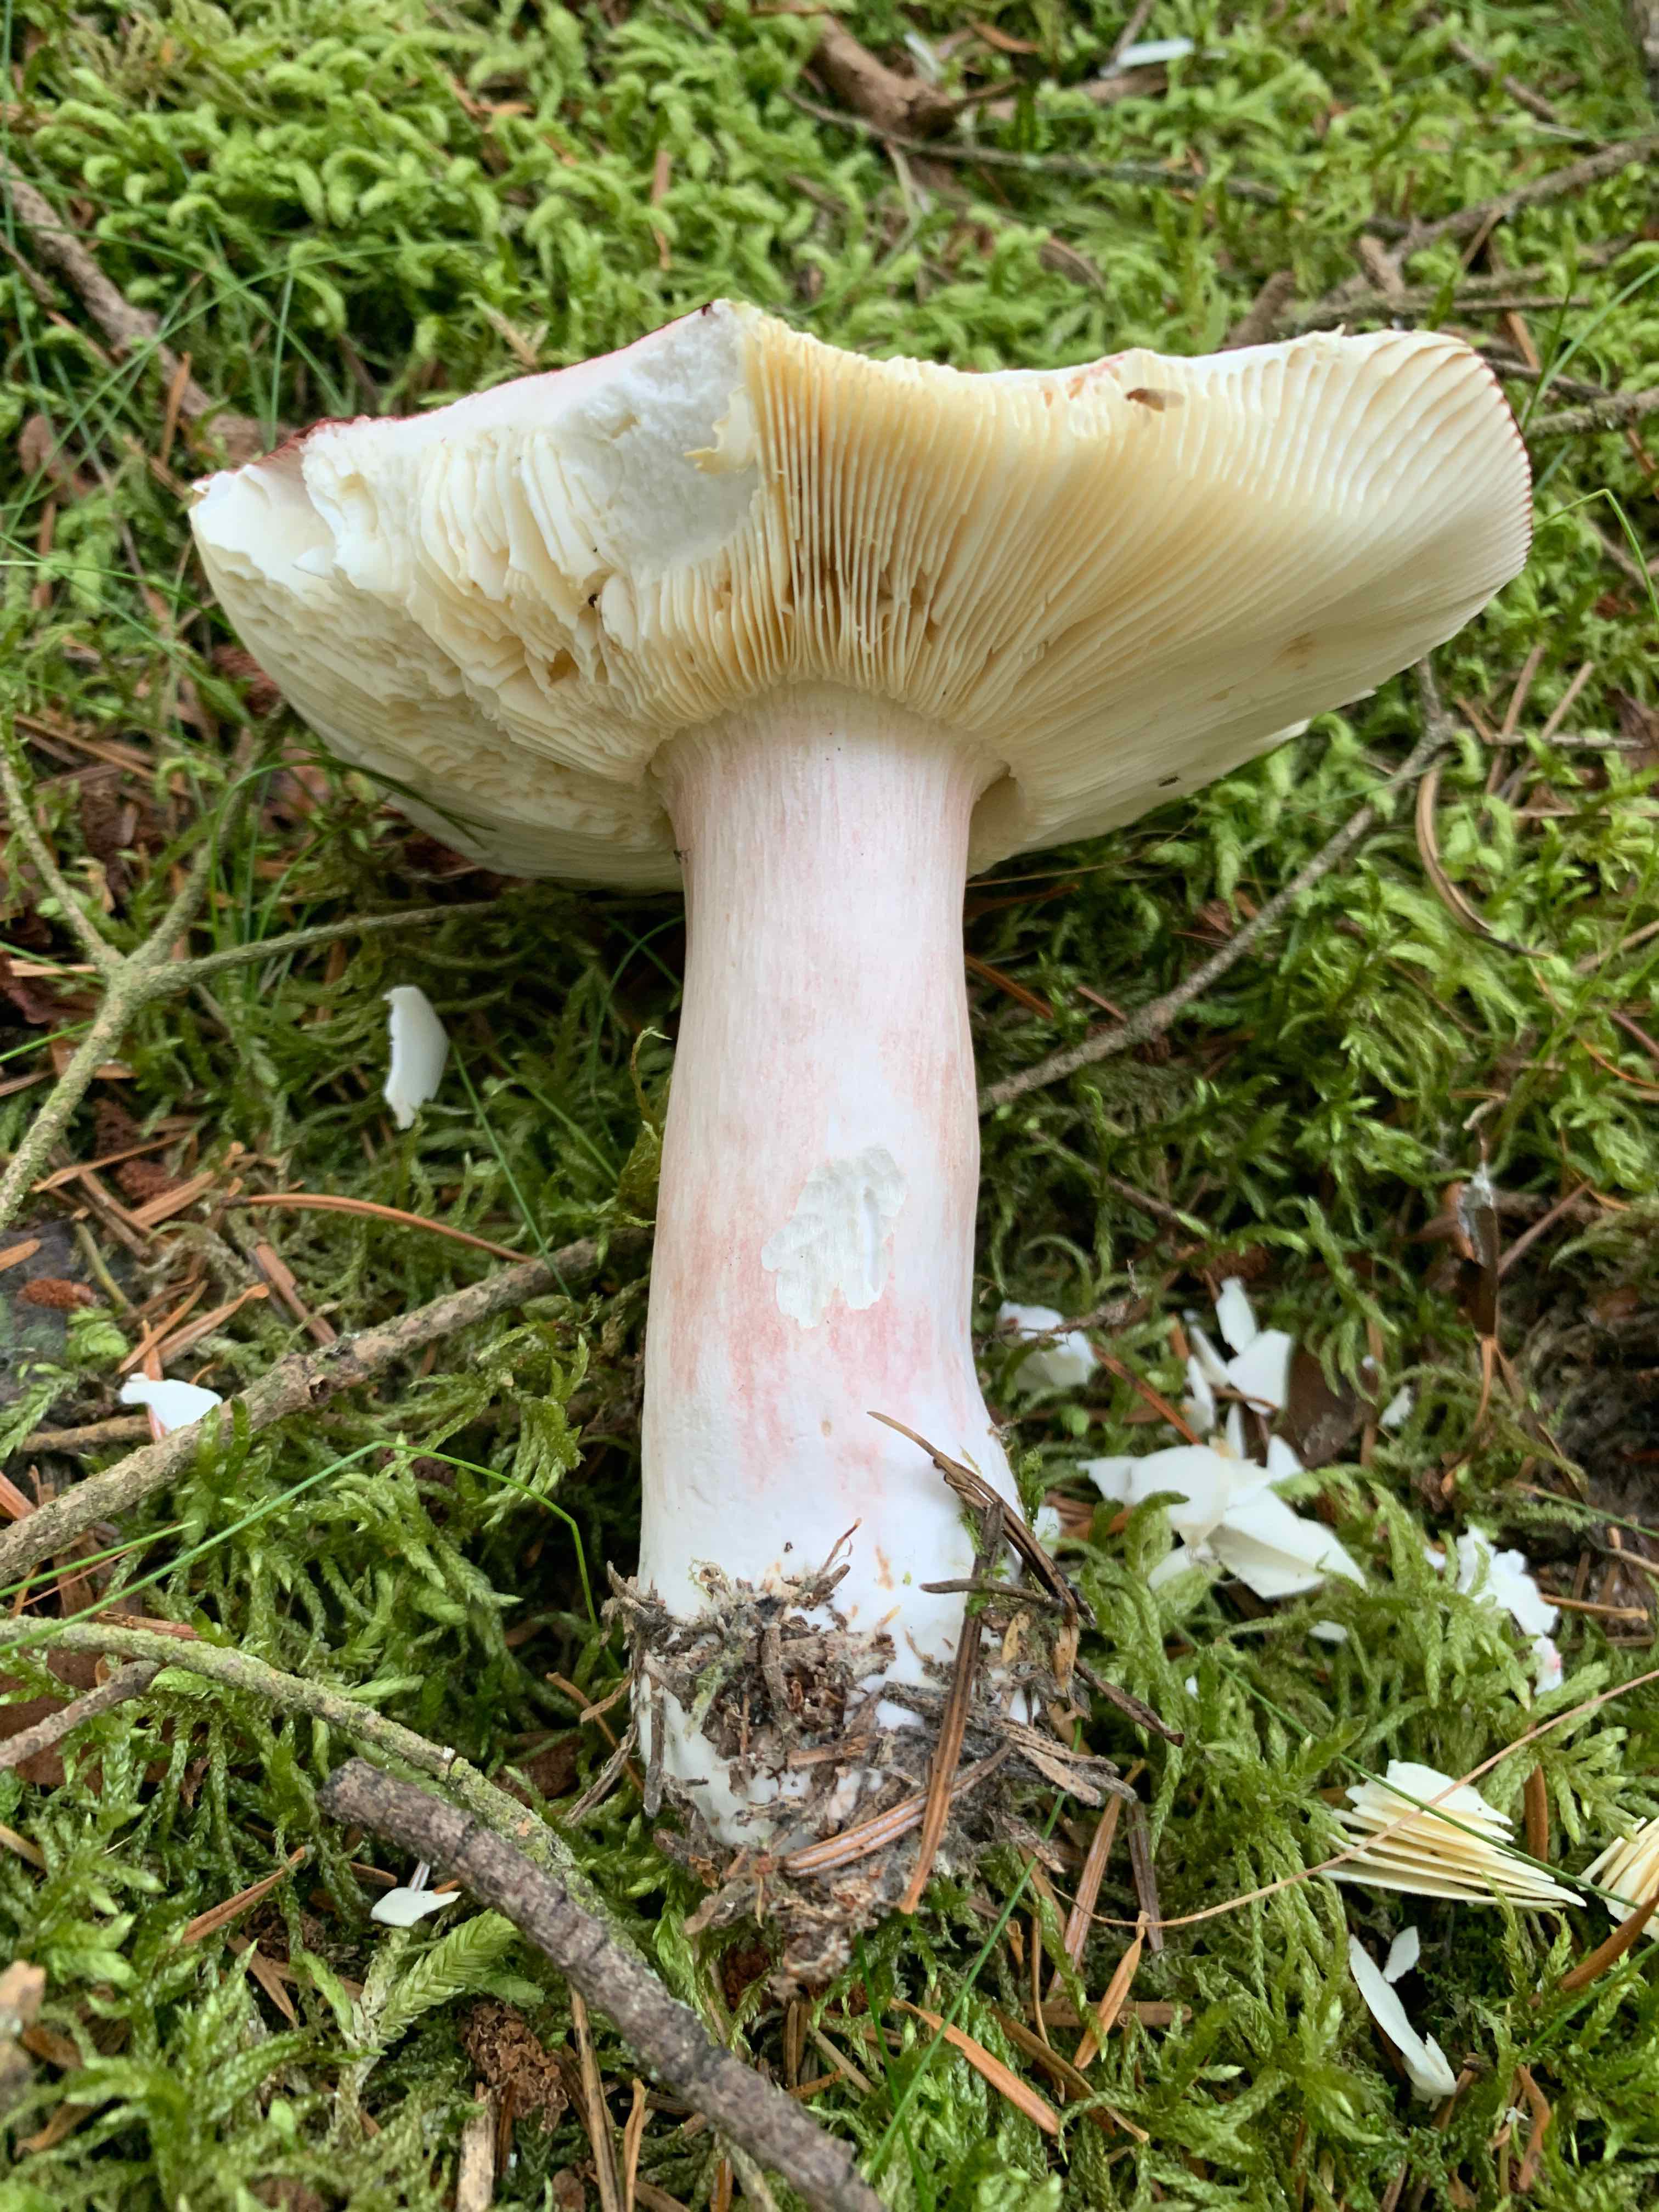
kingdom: Fungi
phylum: Basidiomycota
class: Agaricomycetes
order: Russulales
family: Russulaceae
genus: Russula
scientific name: Russula xerampelina
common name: hummer-skørhat
